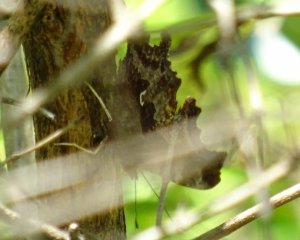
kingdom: Animalia
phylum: Arthropoda
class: Insecta
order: Lepidoptera
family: Nymphalidae
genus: Polygonia
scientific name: Polygonia comma
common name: Eastern Comma
